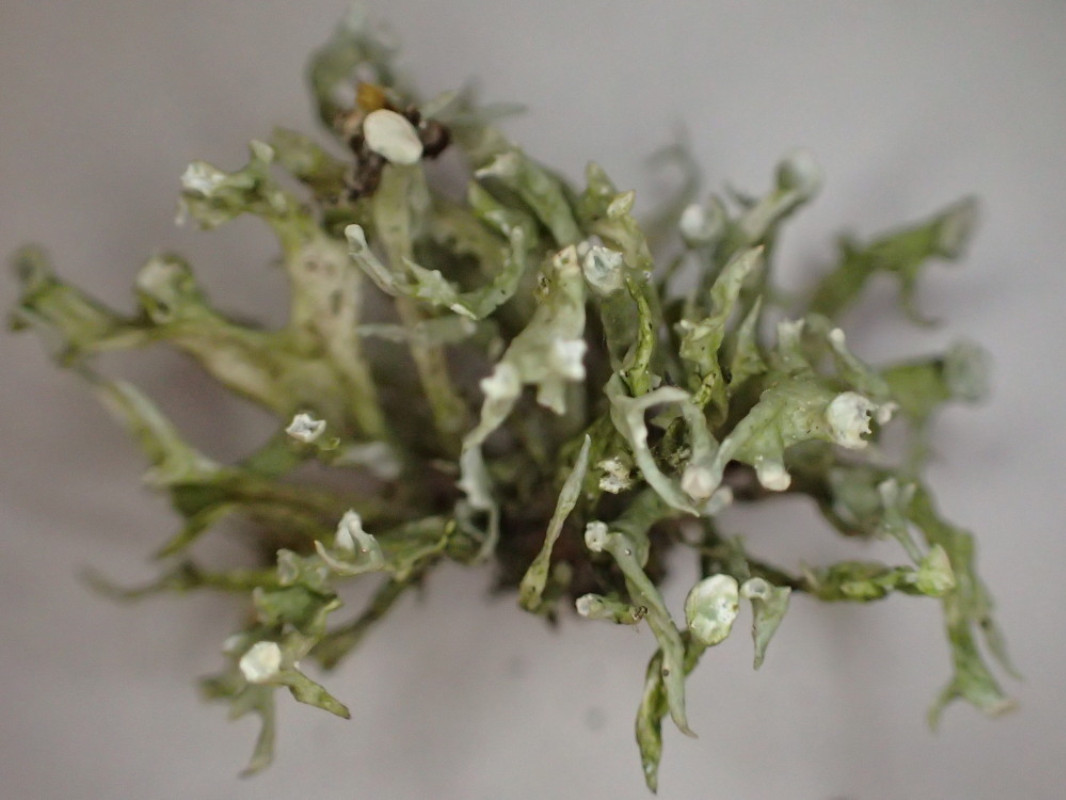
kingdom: Fungi
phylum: Ascomycota
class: Lecanoromycetes
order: Lecanorales
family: Ramalinaceae
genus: Ramalina
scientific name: Ramalina fastigiata
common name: tue-grenlav
